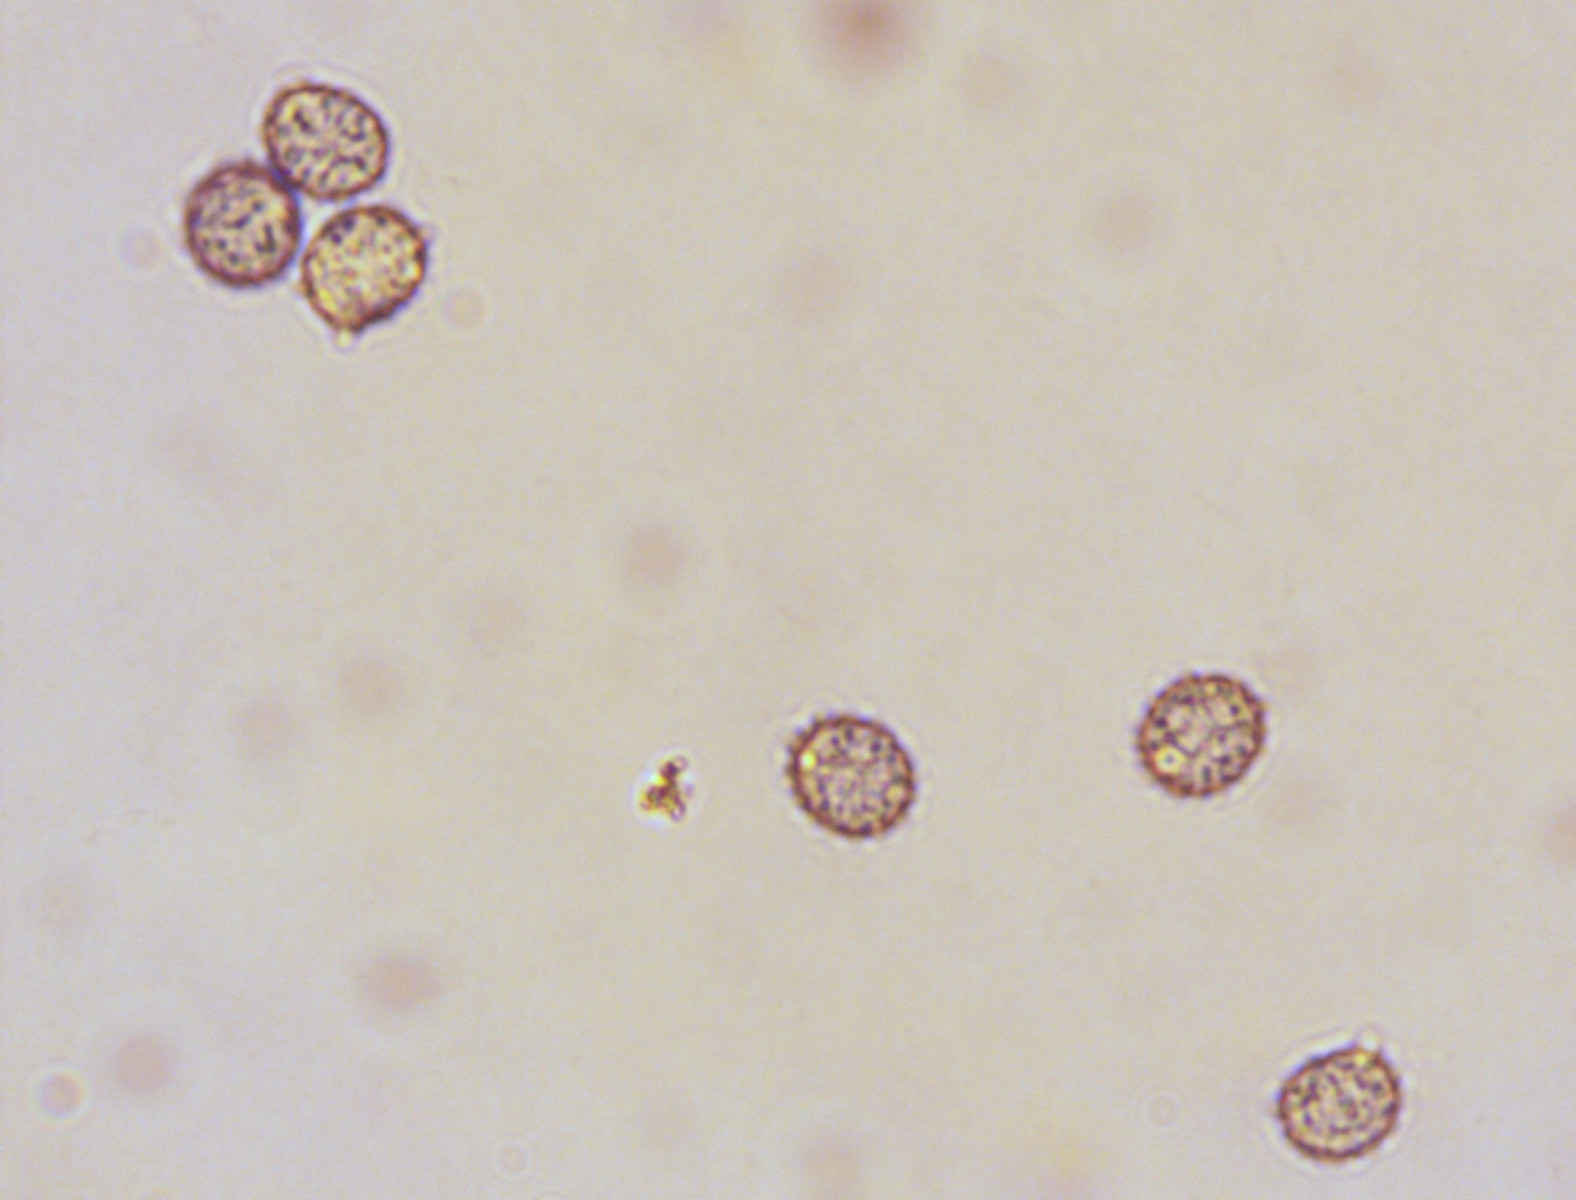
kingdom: Fungi
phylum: Basidiomycota
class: Agaricomycetes
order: Russulales
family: Russulaceae
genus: Russula
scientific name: Russula faustiana
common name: olivengrå skørhat
